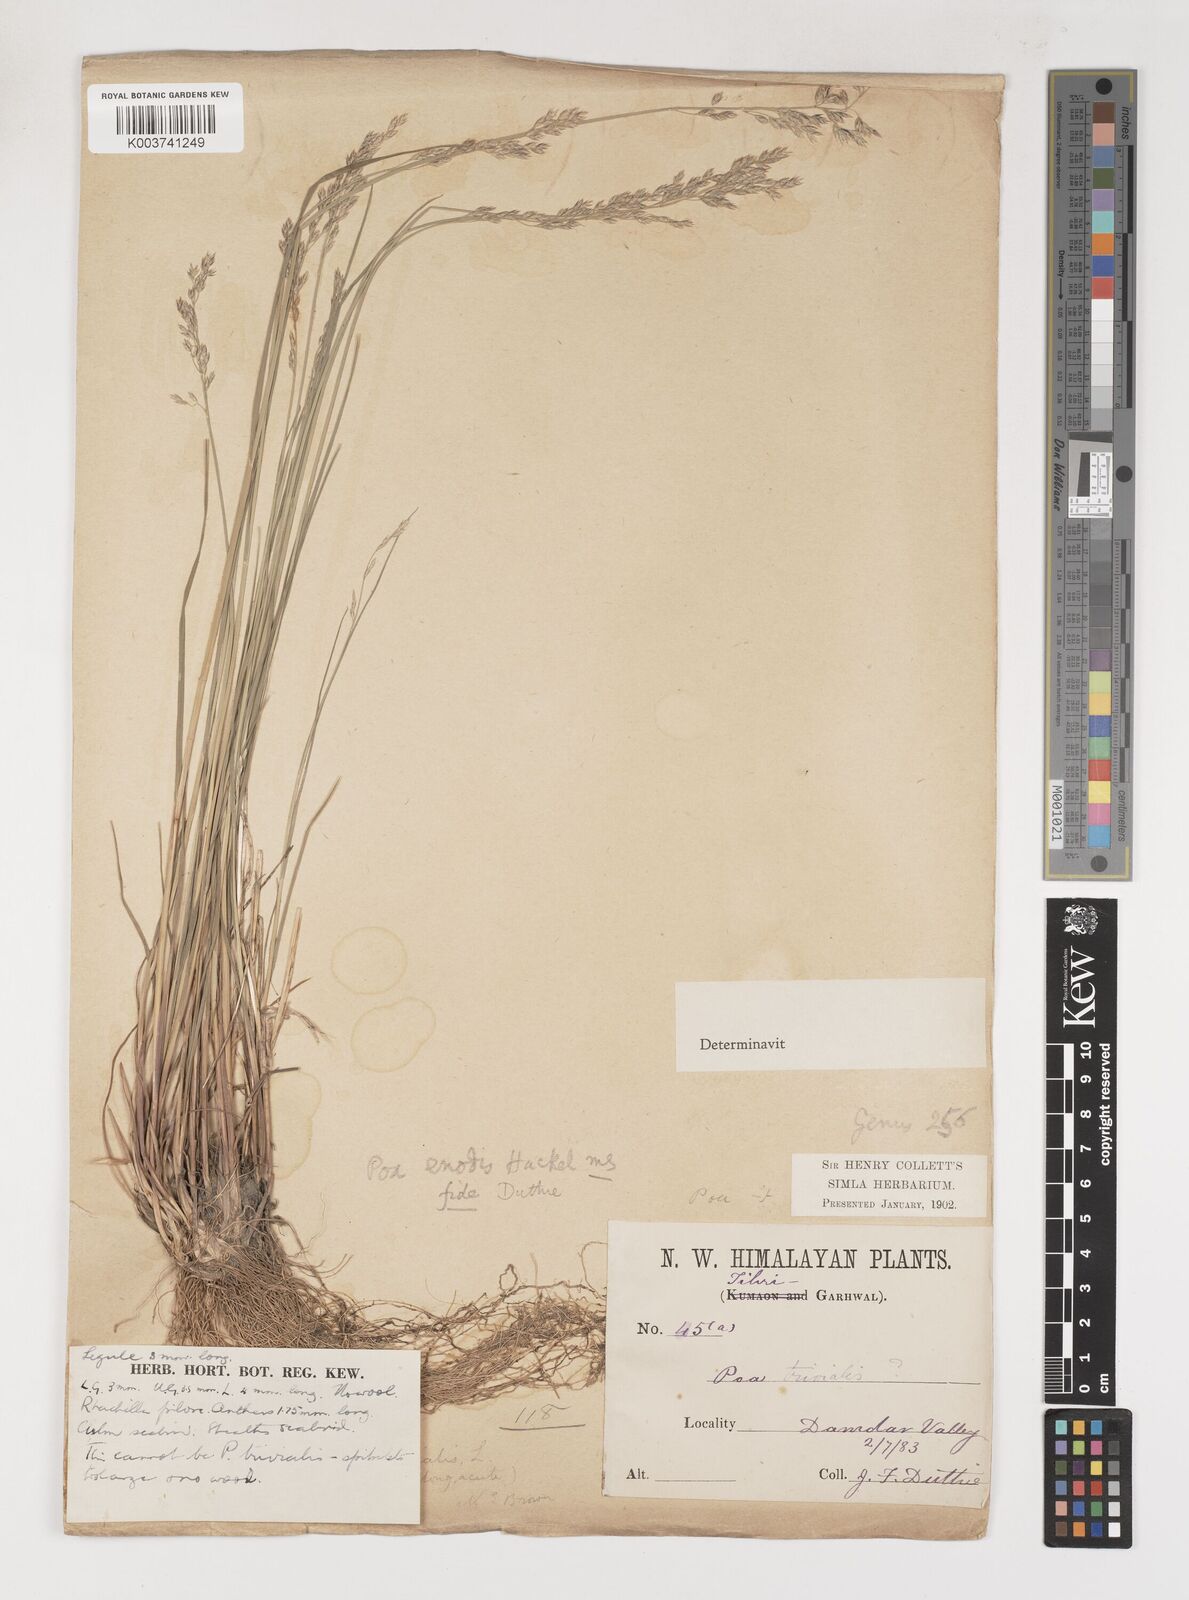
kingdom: Plantae
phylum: Tracheophyta
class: Liliopsida
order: Poales
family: Poaceae
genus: Poa
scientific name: Poa
